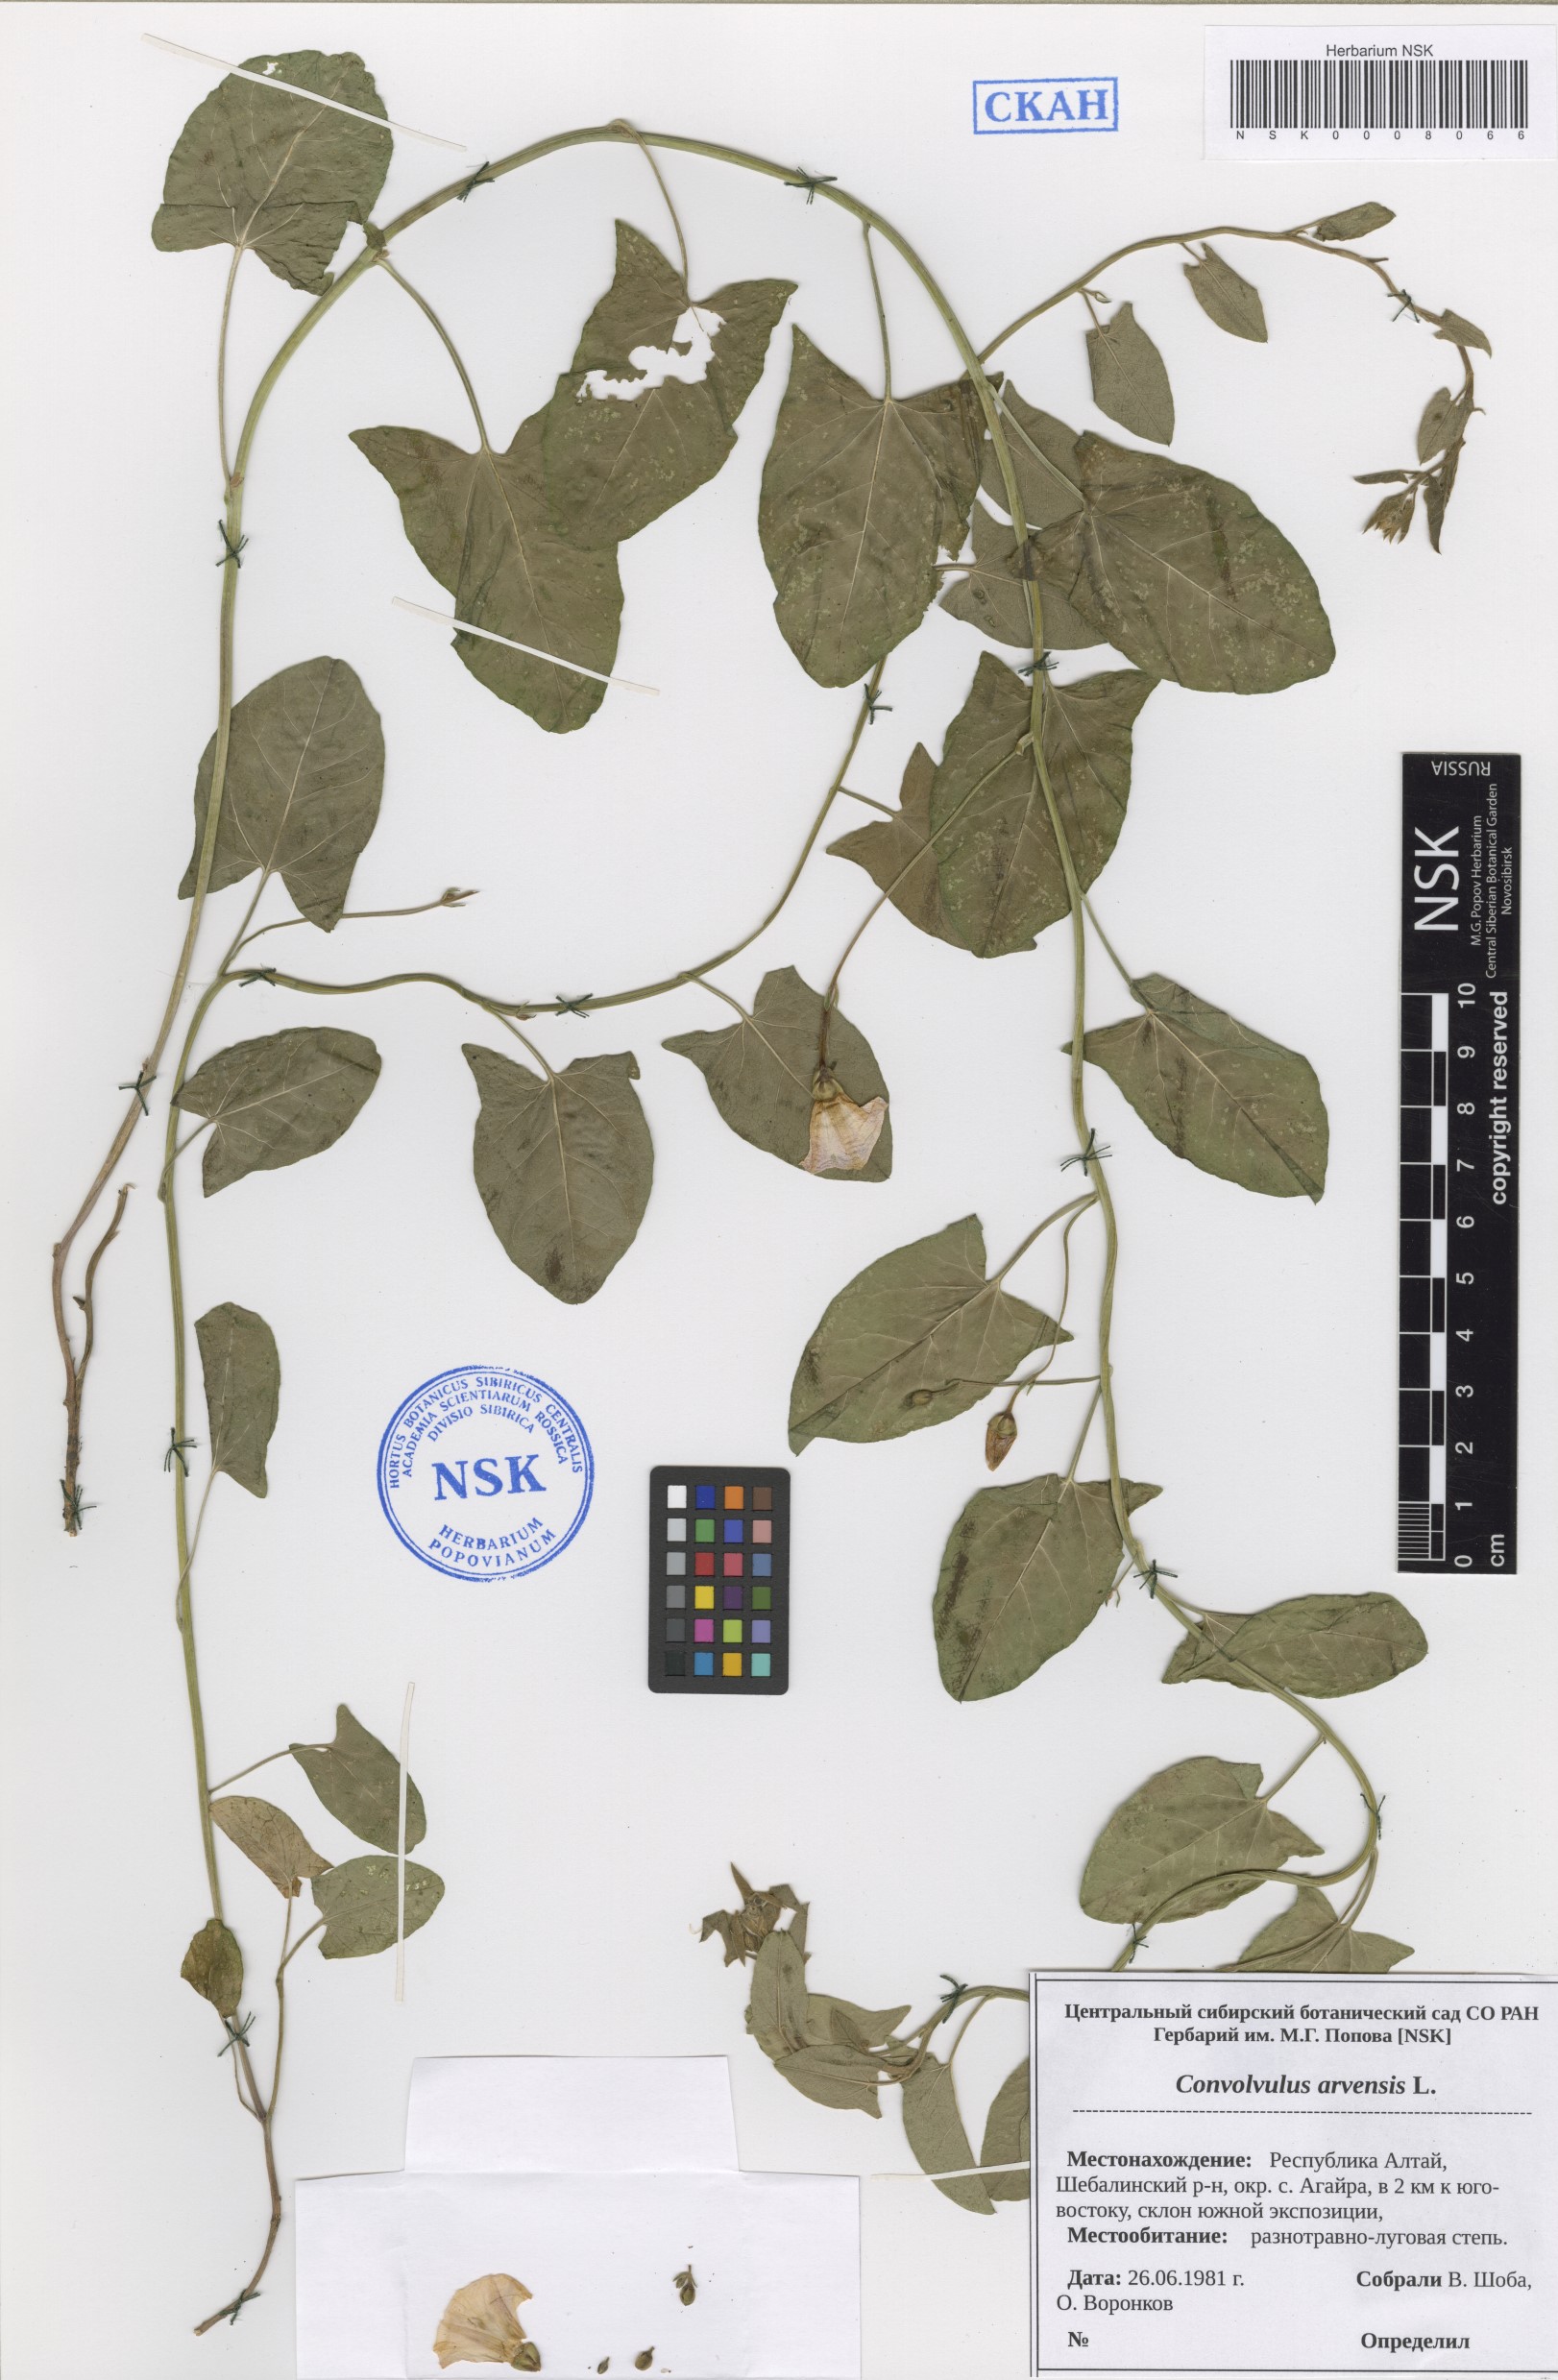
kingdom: Plantae
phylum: Tracheophyta
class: Magnoliopsida
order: Solanales
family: Convolvulaceae
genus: Convolvulus
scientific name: Convolvulus arvensis
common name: Field bindweed
